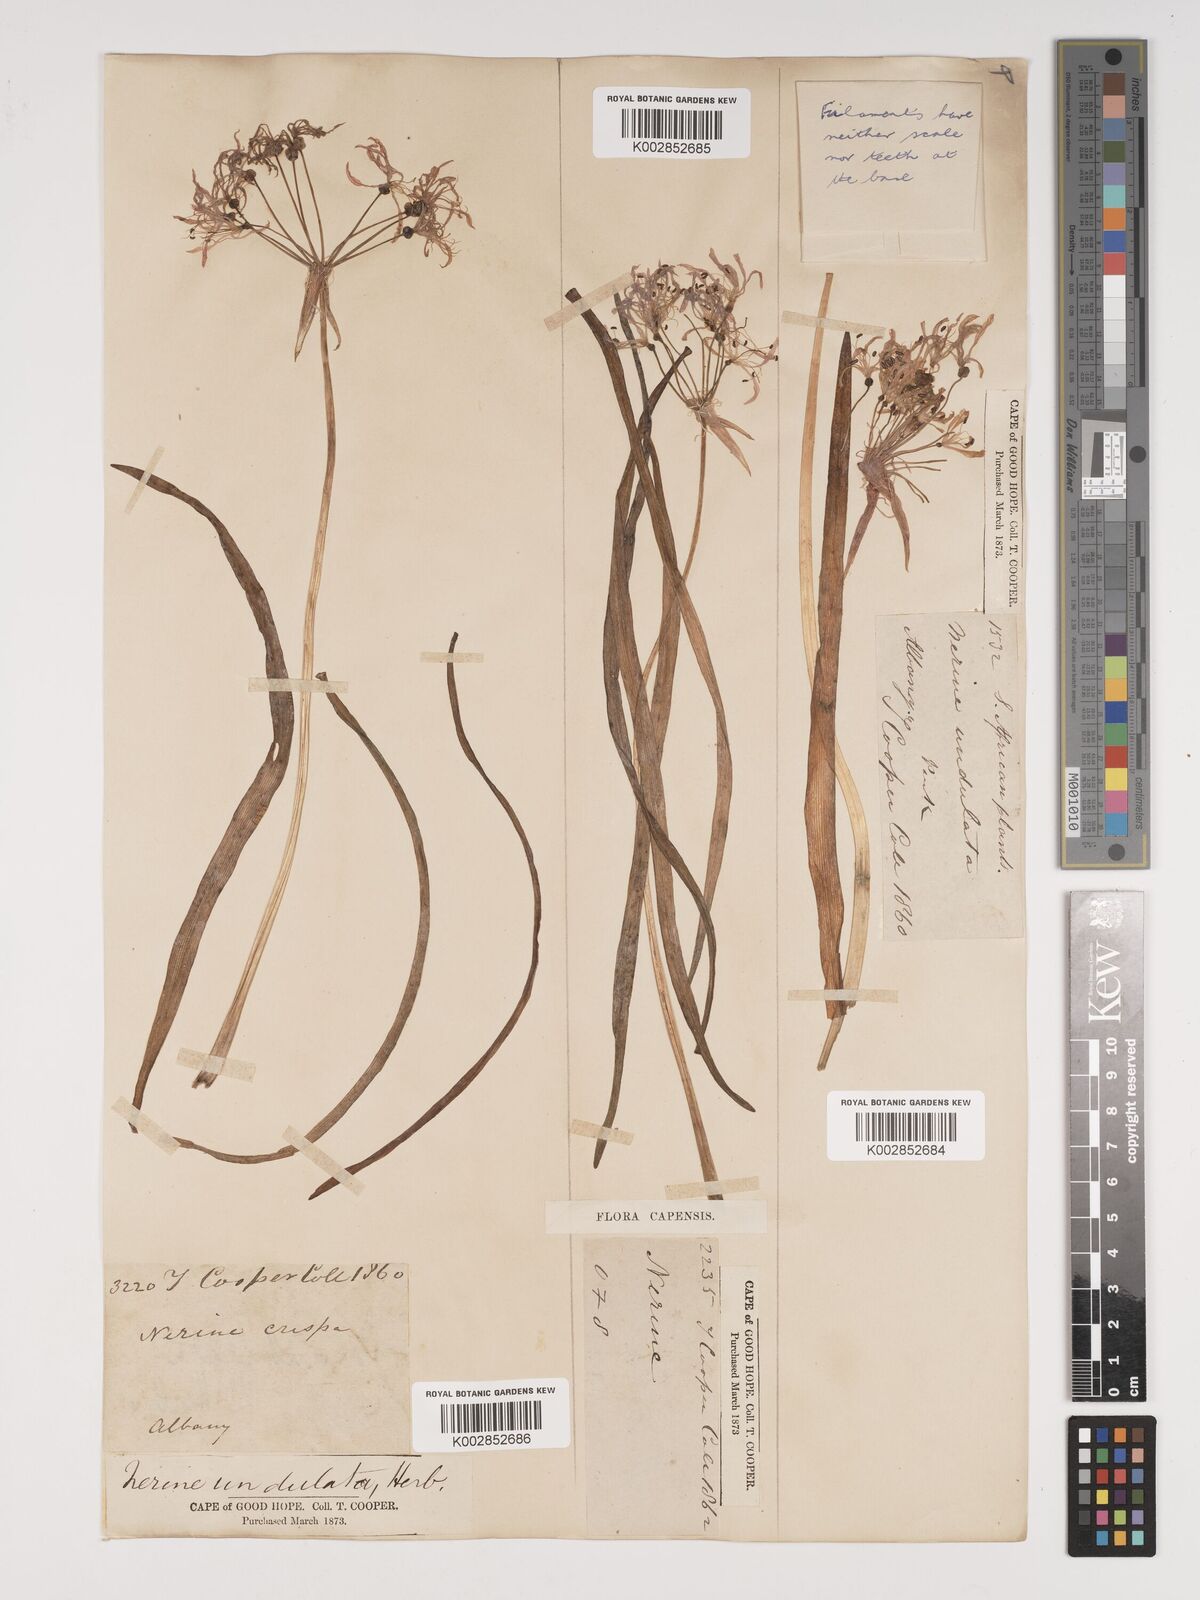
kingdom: Plantae
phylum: Tracheophyta
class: Liliopsida
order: Asparagales
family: Amaryllidaceae
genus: Nerine
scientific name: Nerine undulata
